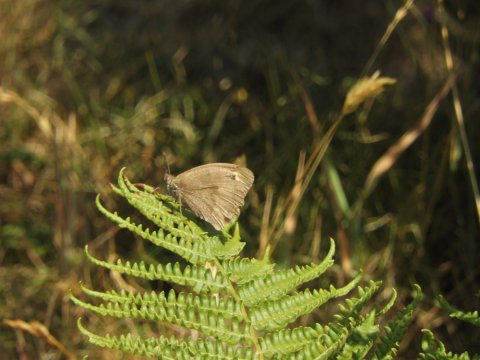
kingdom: Animalia
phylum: Arthropoda
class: Insecta
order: Lepidoptera
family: Nymphalidae
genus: Maniola
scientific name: Maniola jurtina
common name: Meadow Brown
